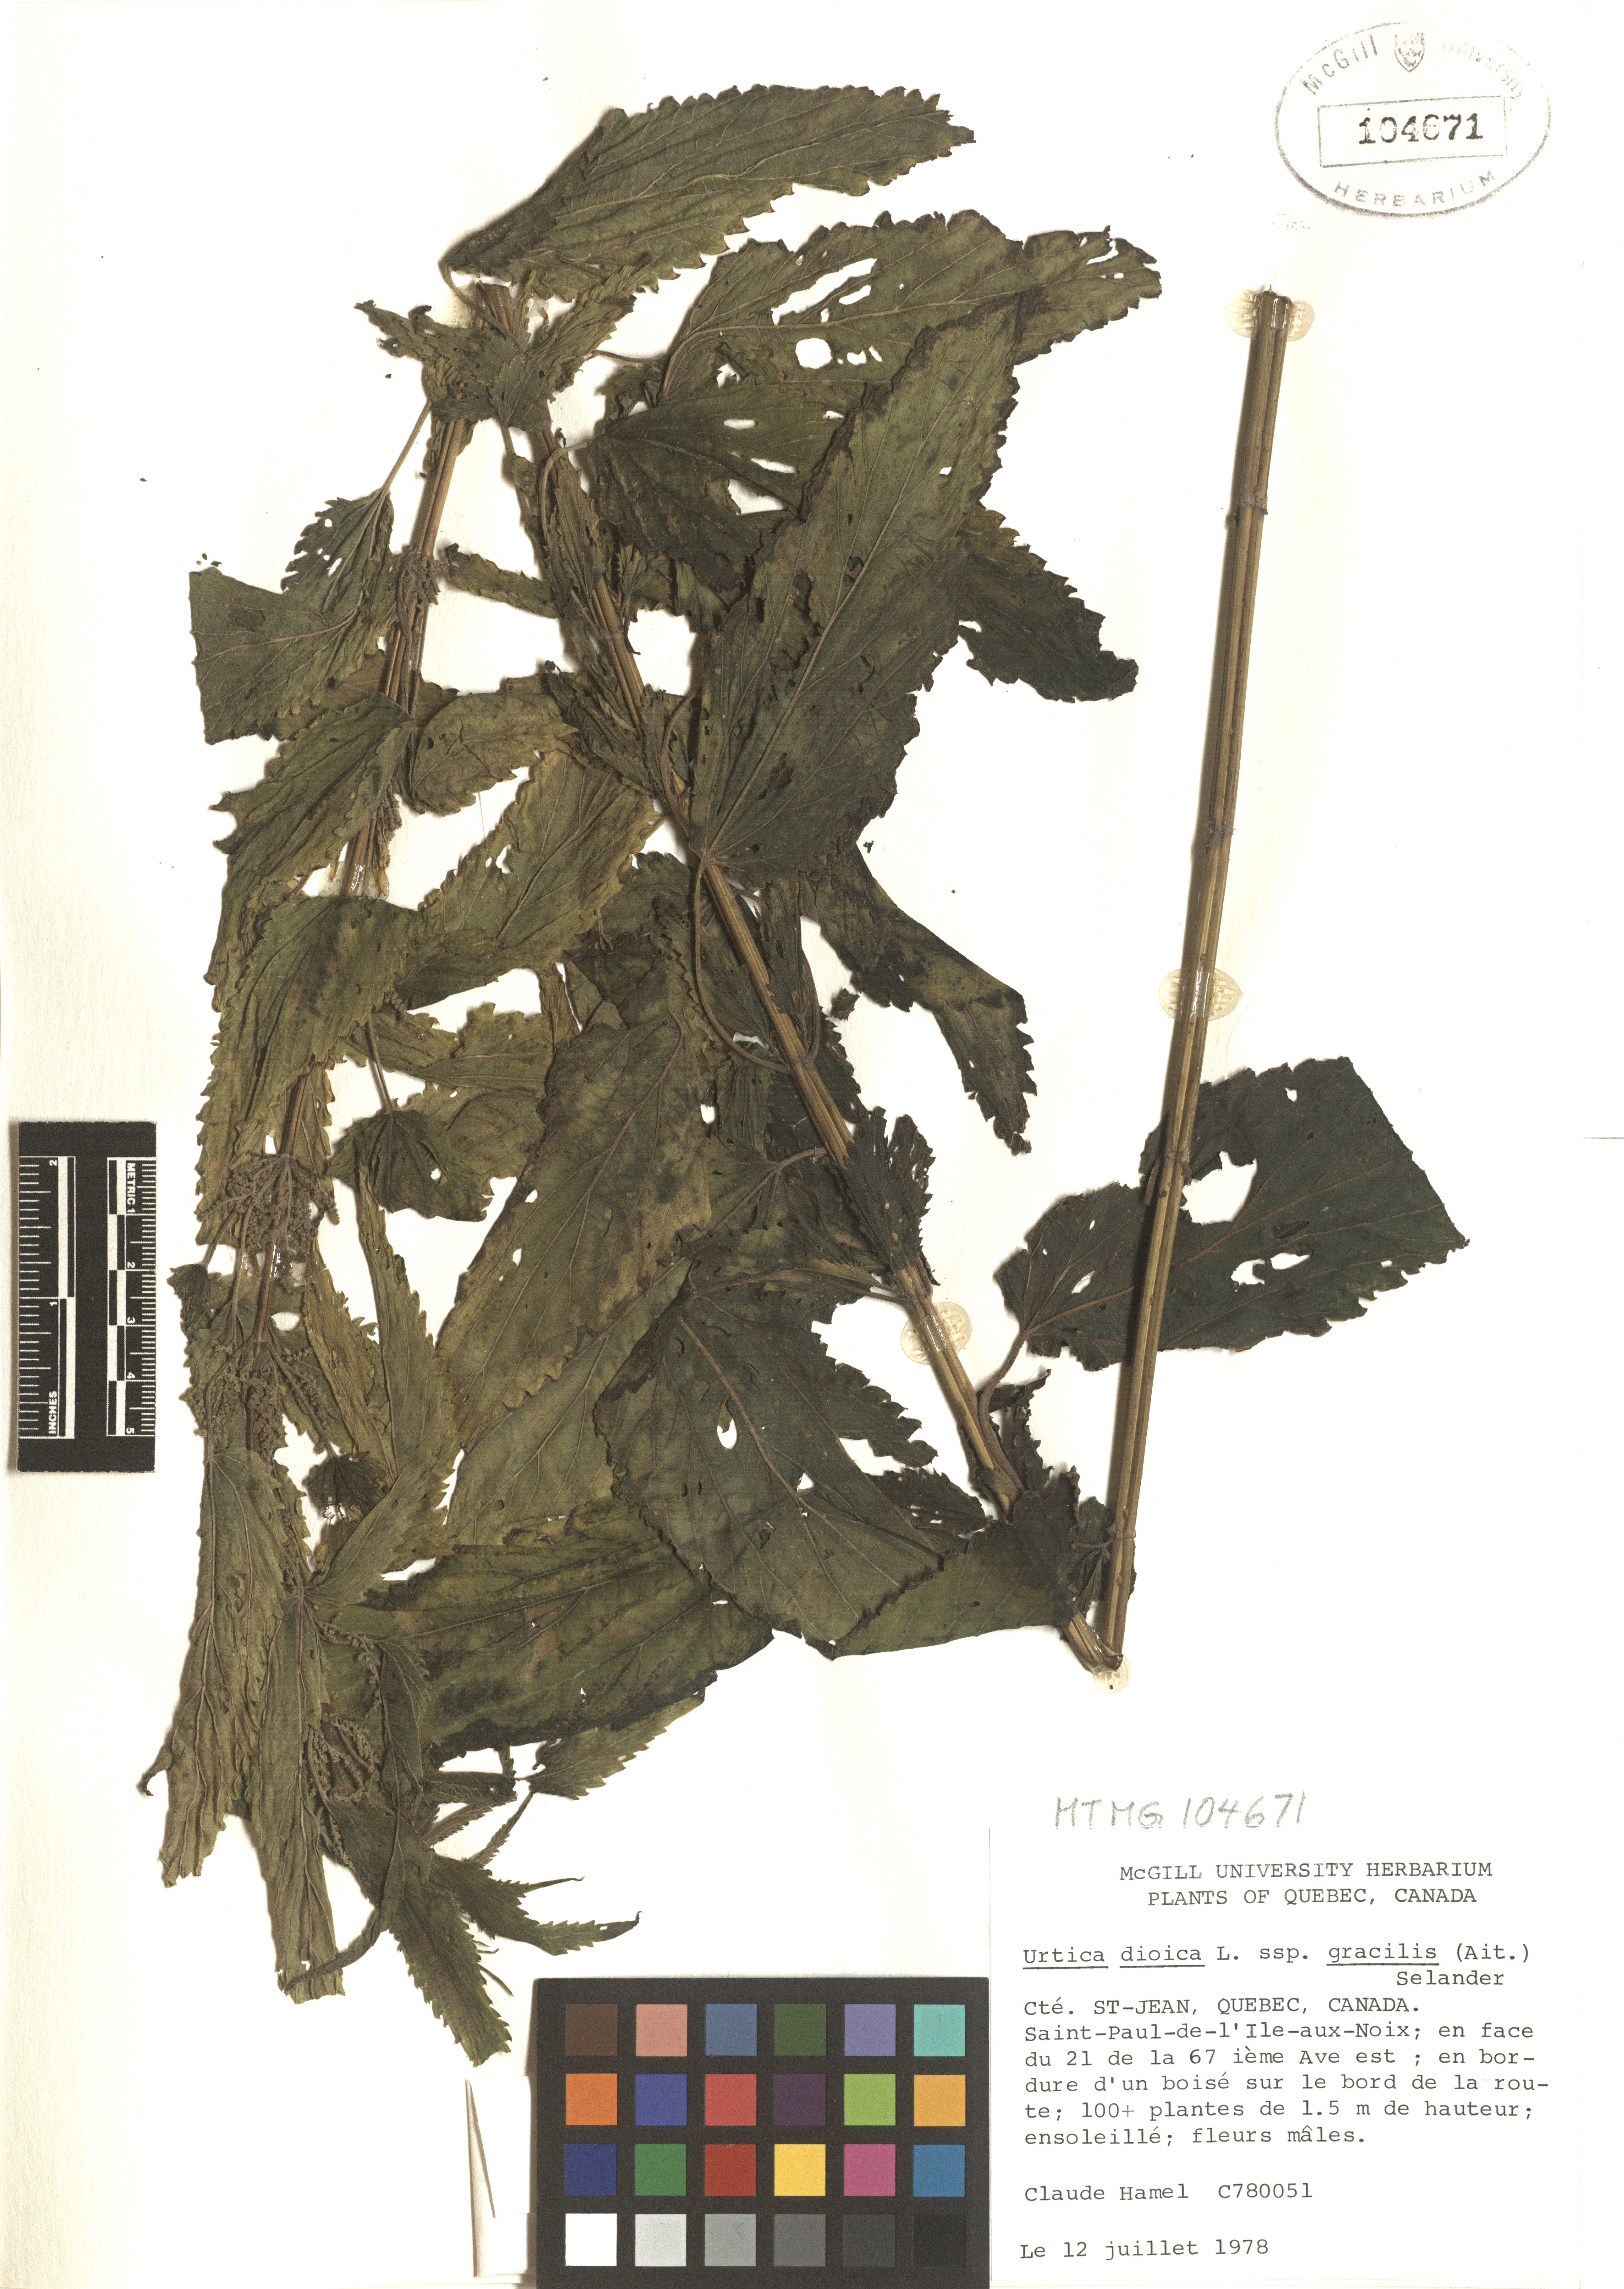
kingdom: Plantae
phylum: Tracheophyta
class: Magnoliopsida
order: Rosales
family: Urticaceae
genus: Urtica
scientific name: Urtica gracilis
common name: Slender stinging nettle
